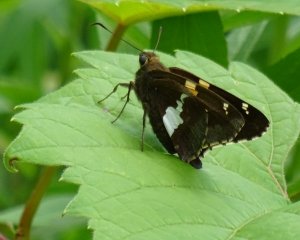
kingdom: Animalia
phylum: Arthropoda
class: Insecta
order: Lepidoptera
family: Hesperiidae
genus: Epargyreus
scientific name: Epargyreus clarus
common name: Silver-spotted Skipper
